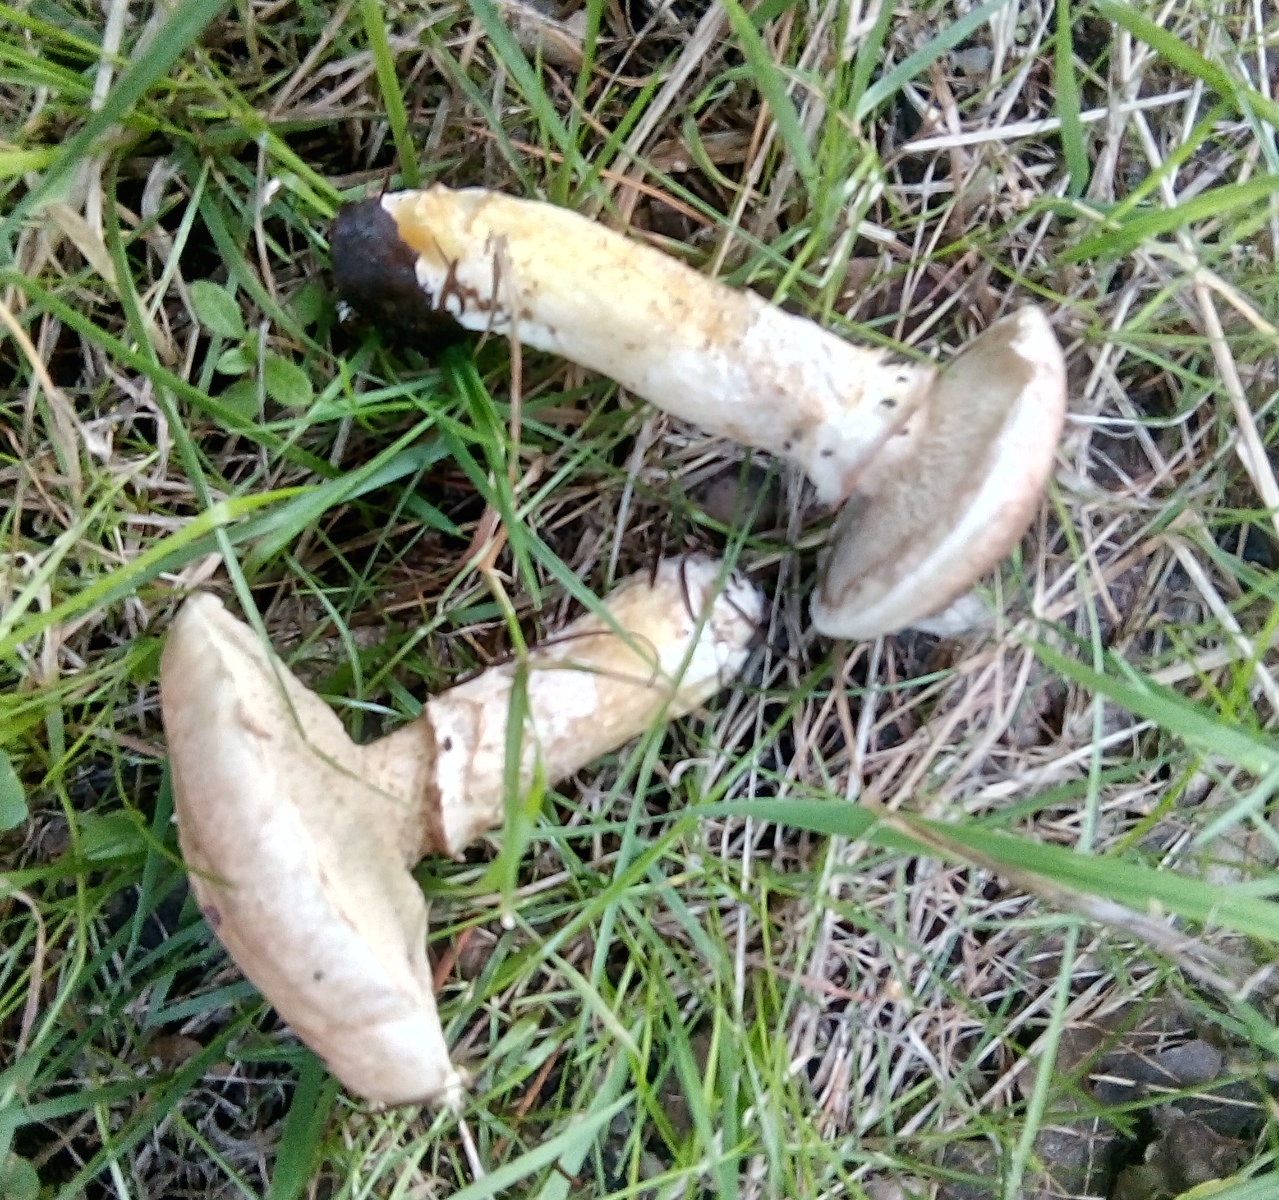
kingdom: Fungi
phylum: Basidiomycota
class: Agaricomycetes
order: Boletales
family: Suillaceae
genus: Suillus
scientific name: Suillus viscidus
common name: olivengrå slimrørhat
